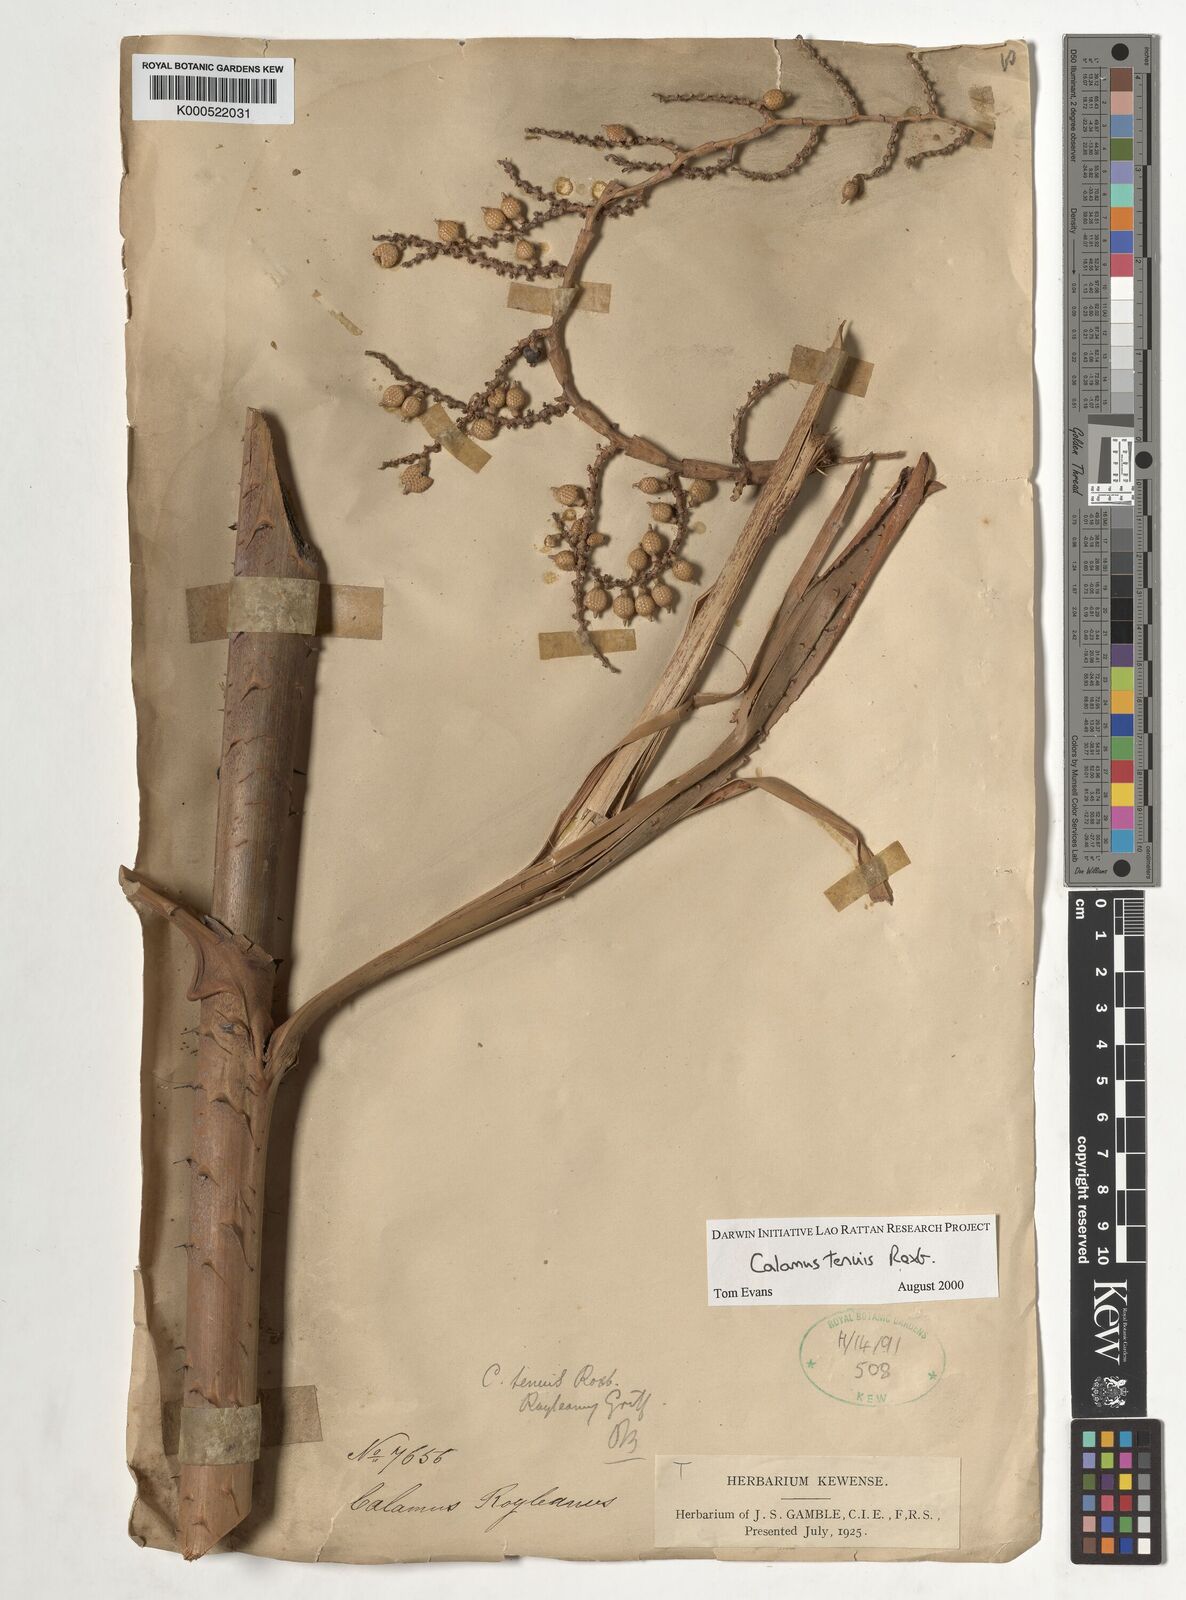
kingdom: Plantae
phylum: Tracheophyta
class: Liliopsida
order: Arecales
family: Arecaceae
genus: Calamus
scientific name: Calamus tenuis
